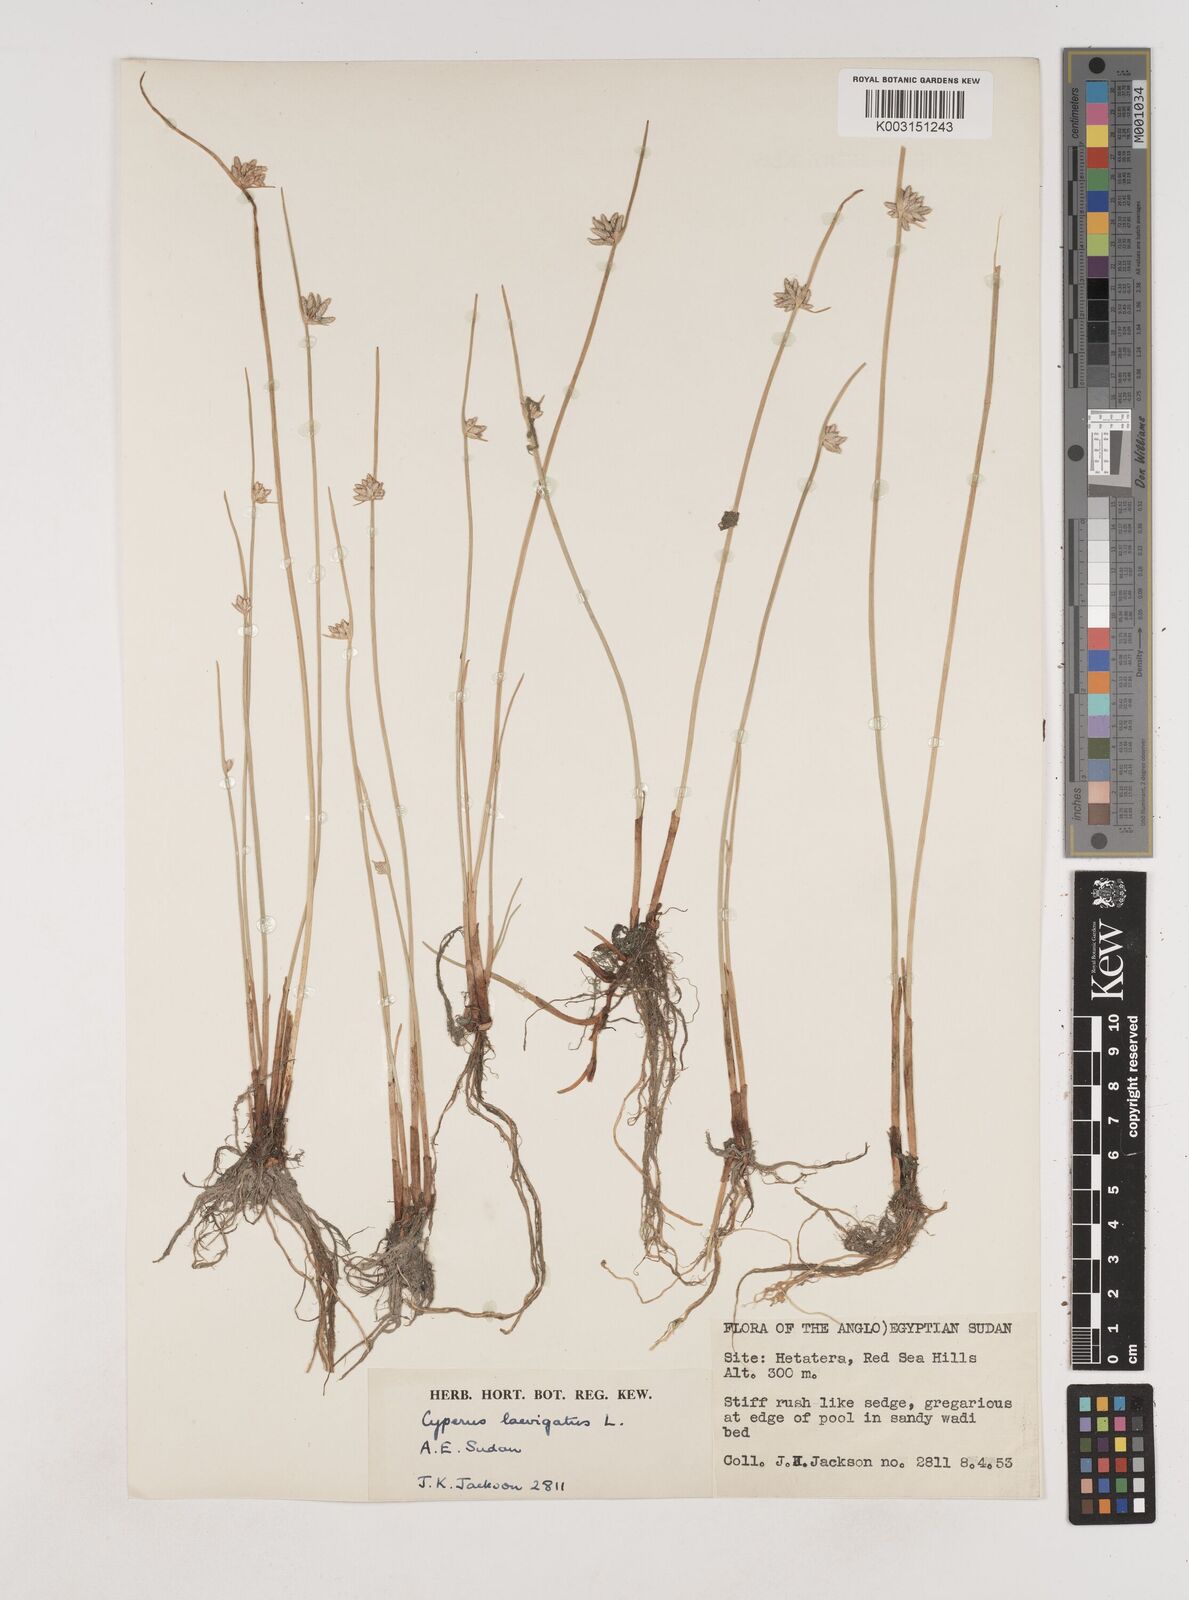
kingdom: Plantae
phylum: Tracheophyta
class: Liliopsida
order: Poales
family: Cyperaceae
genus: Cyperus
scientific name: Cyperus laevigatus
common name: Smooth flat sedge
